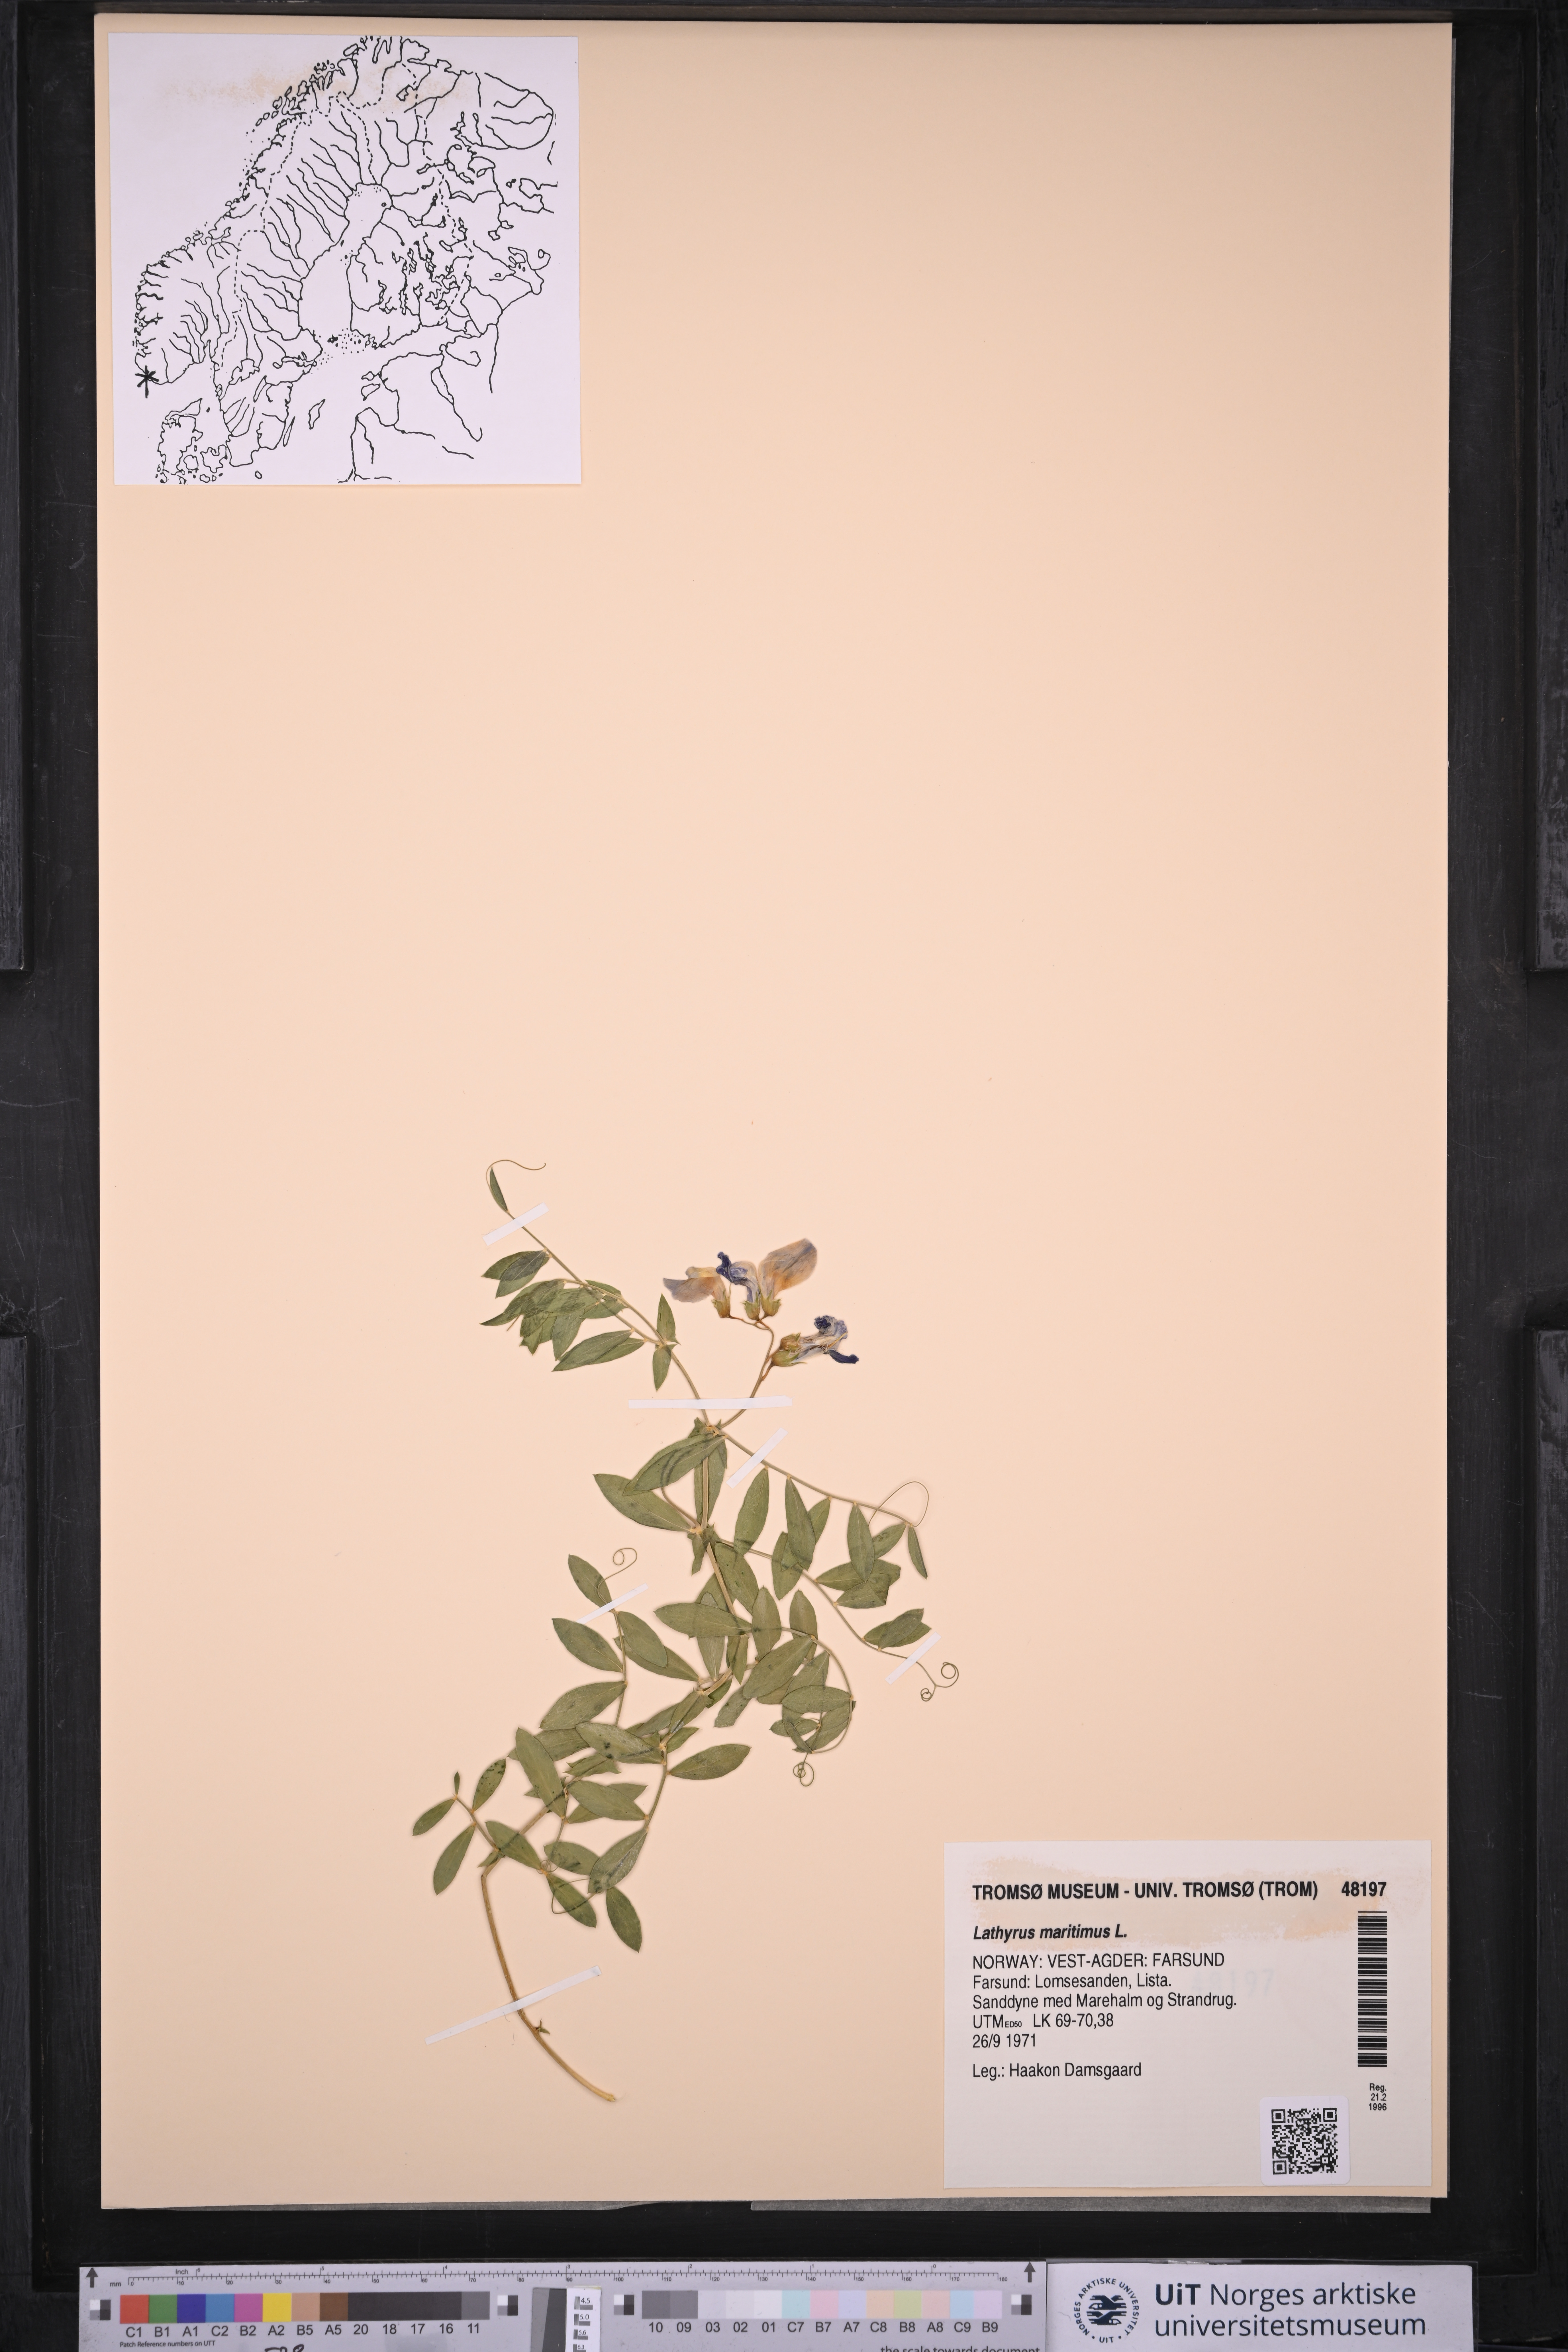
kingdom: Plantae
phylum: Tracheophyta
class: Magnoliopsida
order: Fabales
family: Fabaceae
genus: Lathyrus
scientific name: Lathyrus japonicus
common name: Sea pea
